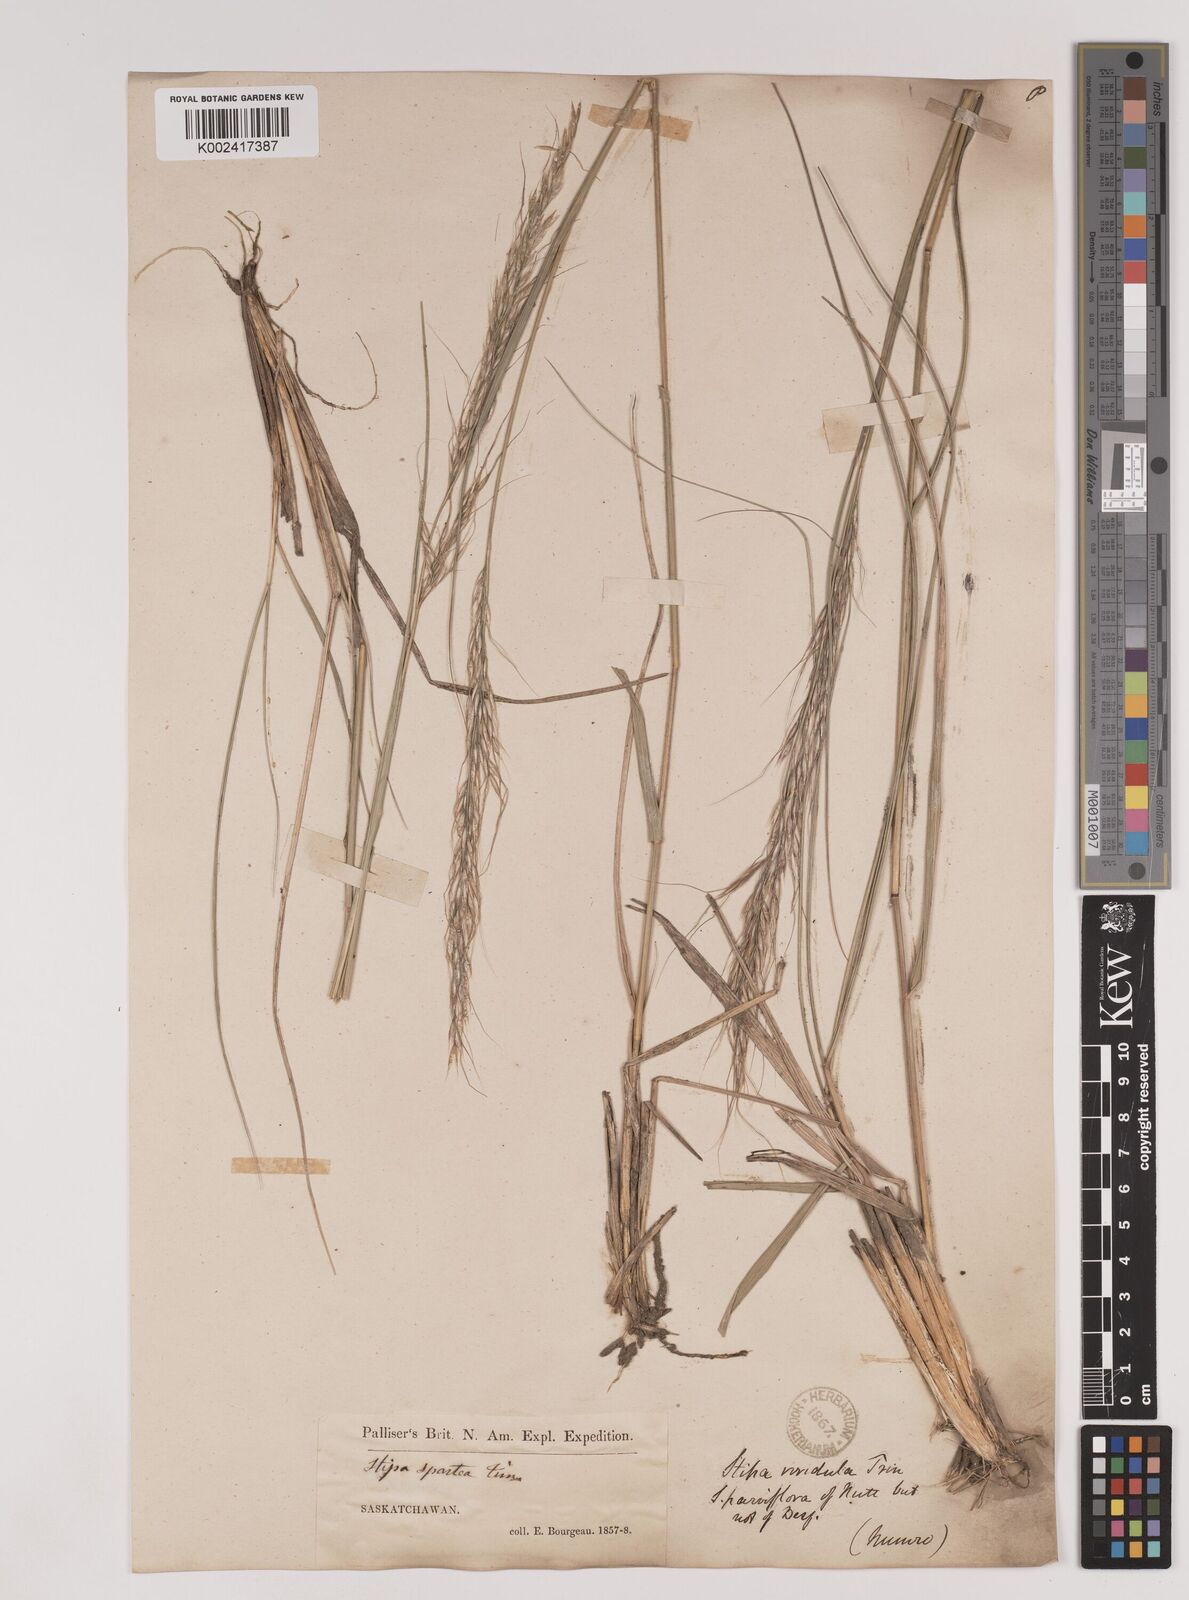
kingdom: Plantae
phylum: Tracheophyta
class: Liliopsida
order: Poales
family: Poaceae
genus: Nassella
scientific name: Nassella viridula
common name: Green needlegrass
